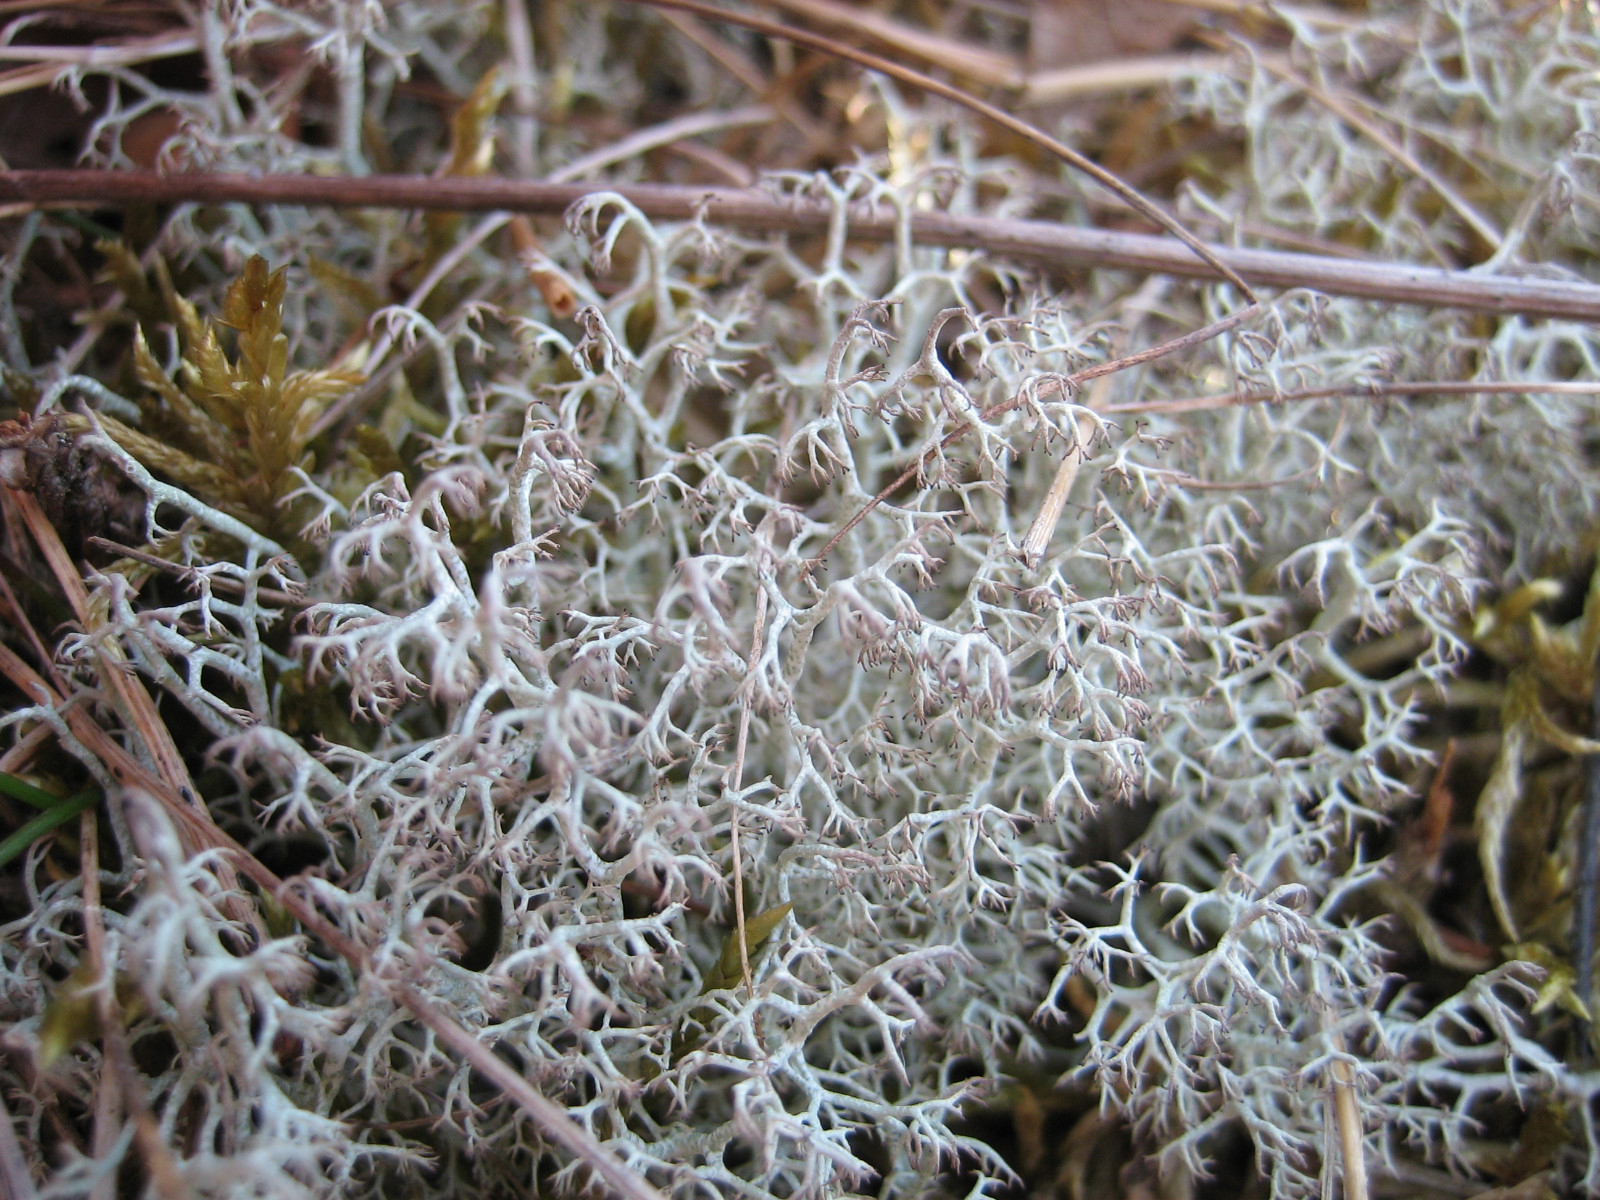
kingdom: Fungi
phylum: Ascomycota
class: Lecanoromycetes
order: Lecanorales
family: Cladoniaceae
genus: Cladonia
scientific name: Cladonia ciliata
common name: spinkel rensdyrlav
